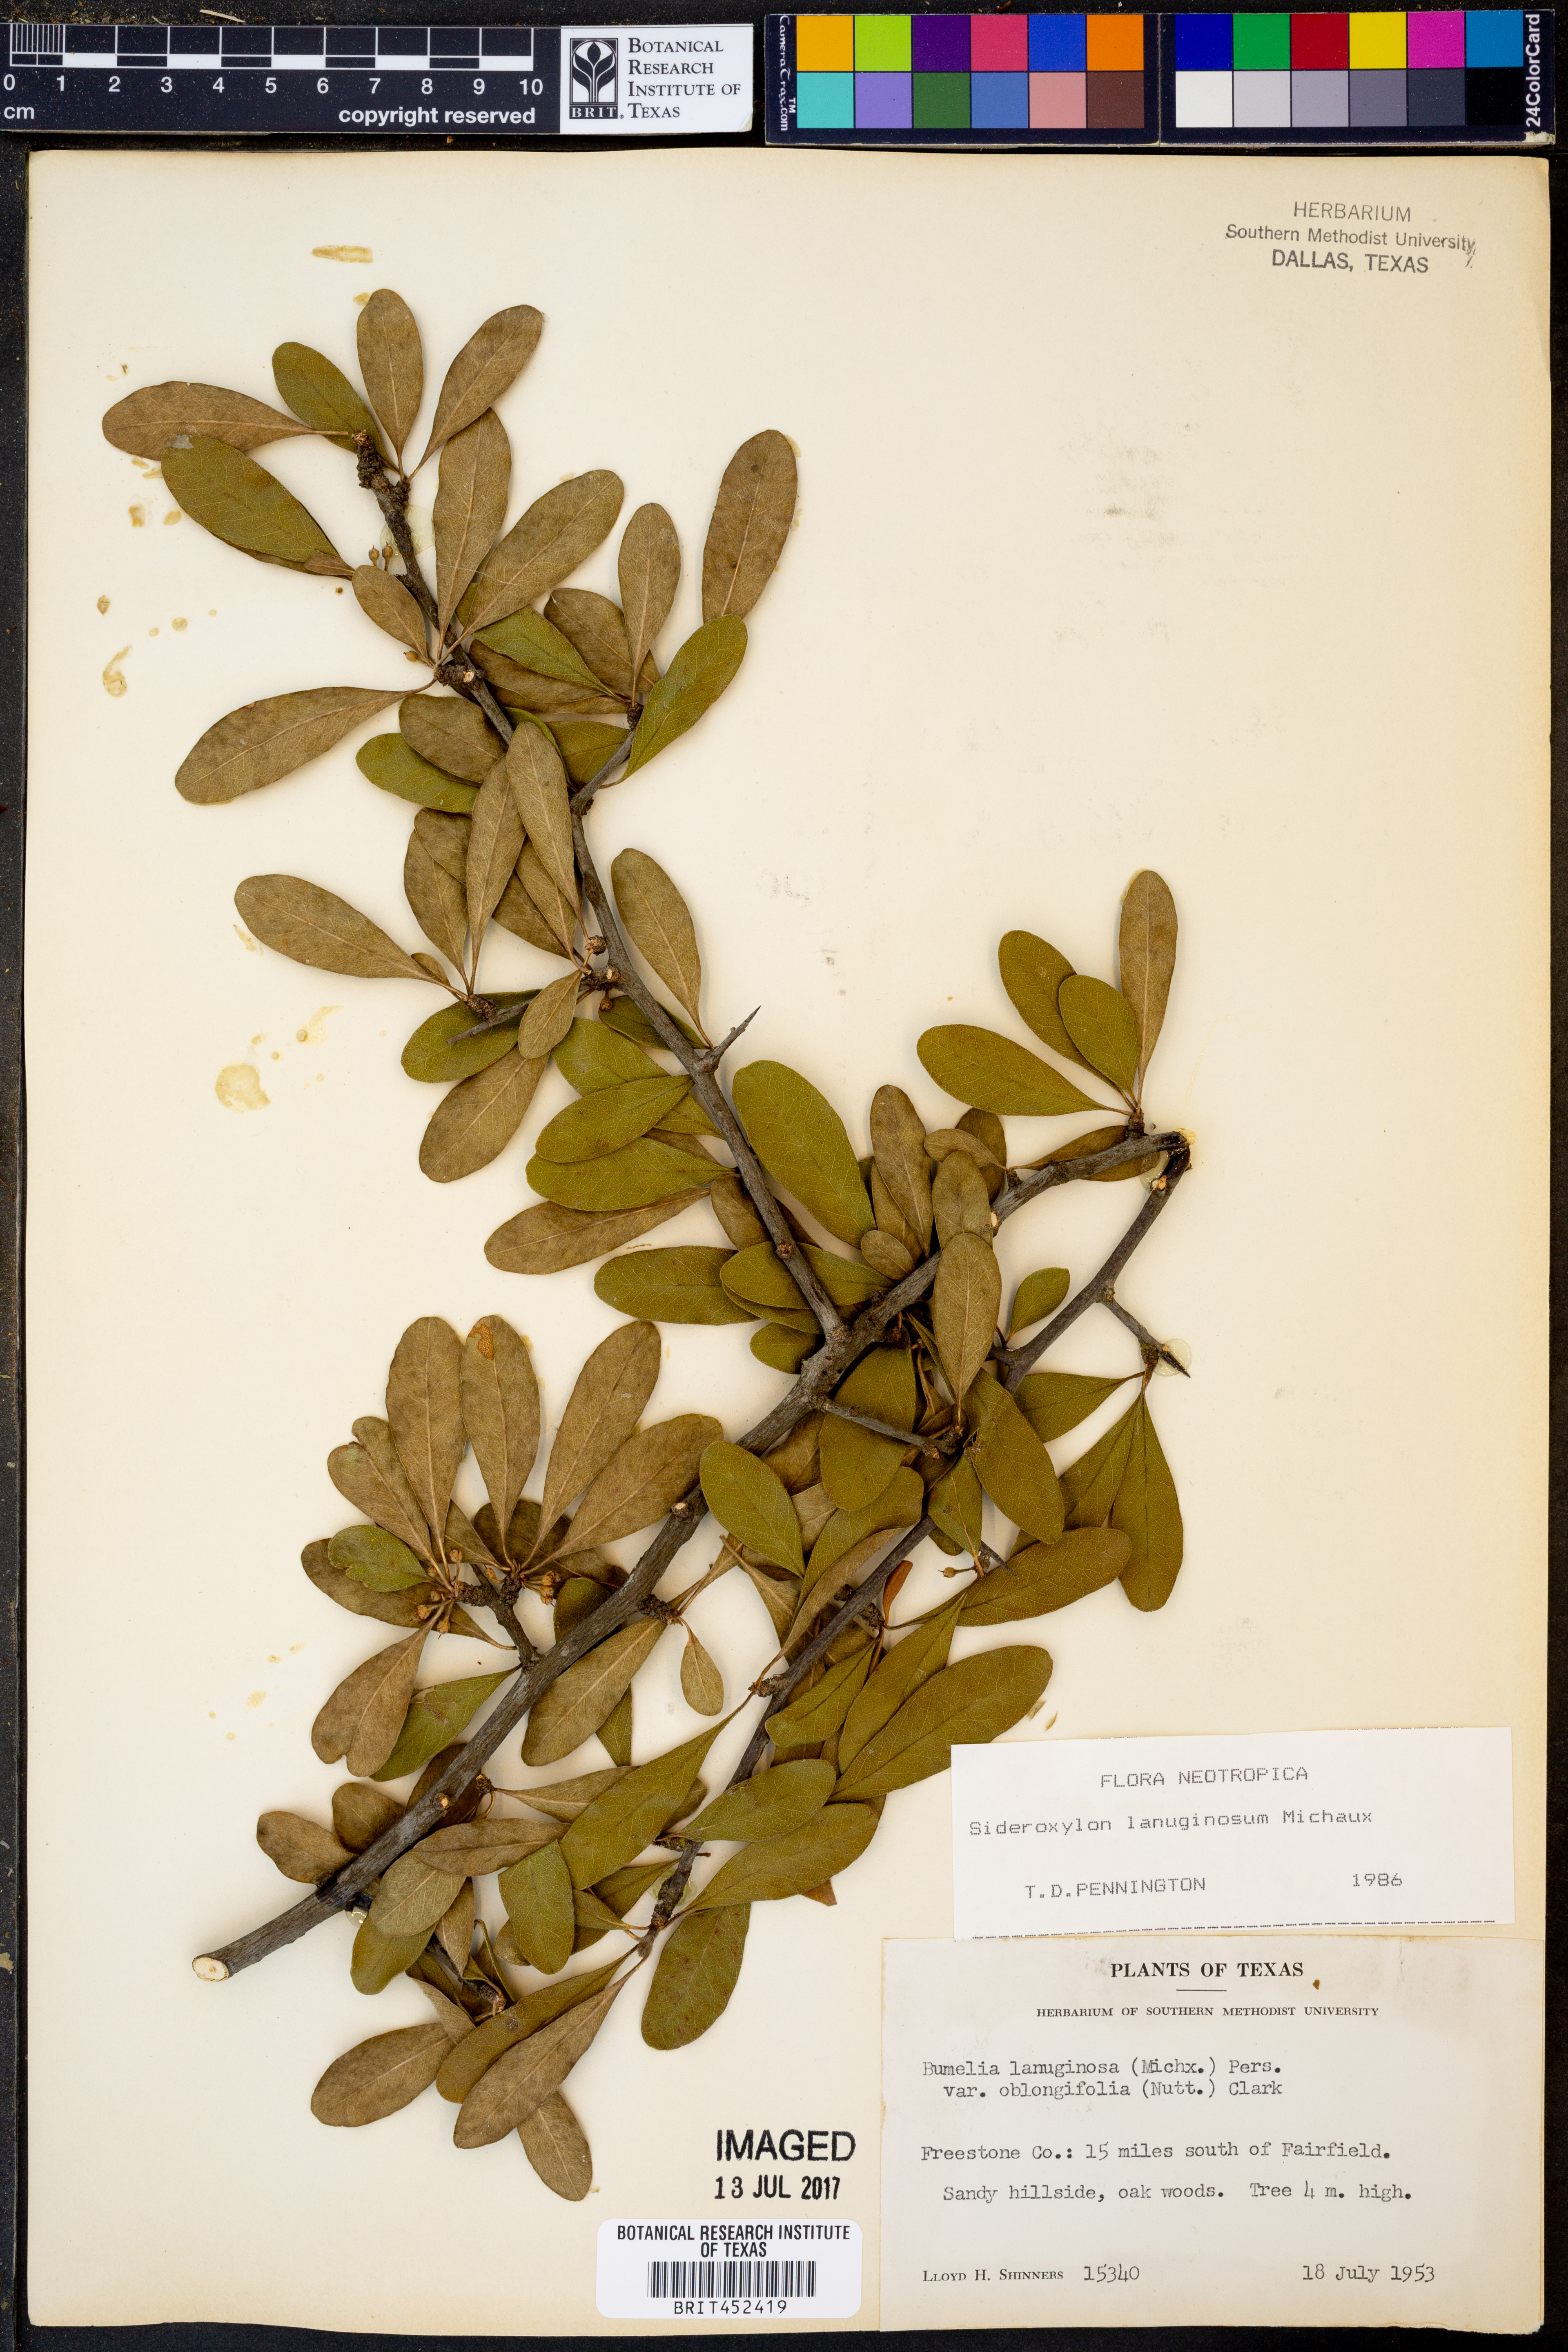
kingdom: Plantae
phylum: Tracheophyta
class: Magnoliopsida
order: Ericales
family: Sapotaceae
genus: Sideroxylon
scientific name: Sideroxylon lanuginosum
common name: Chittamwood
